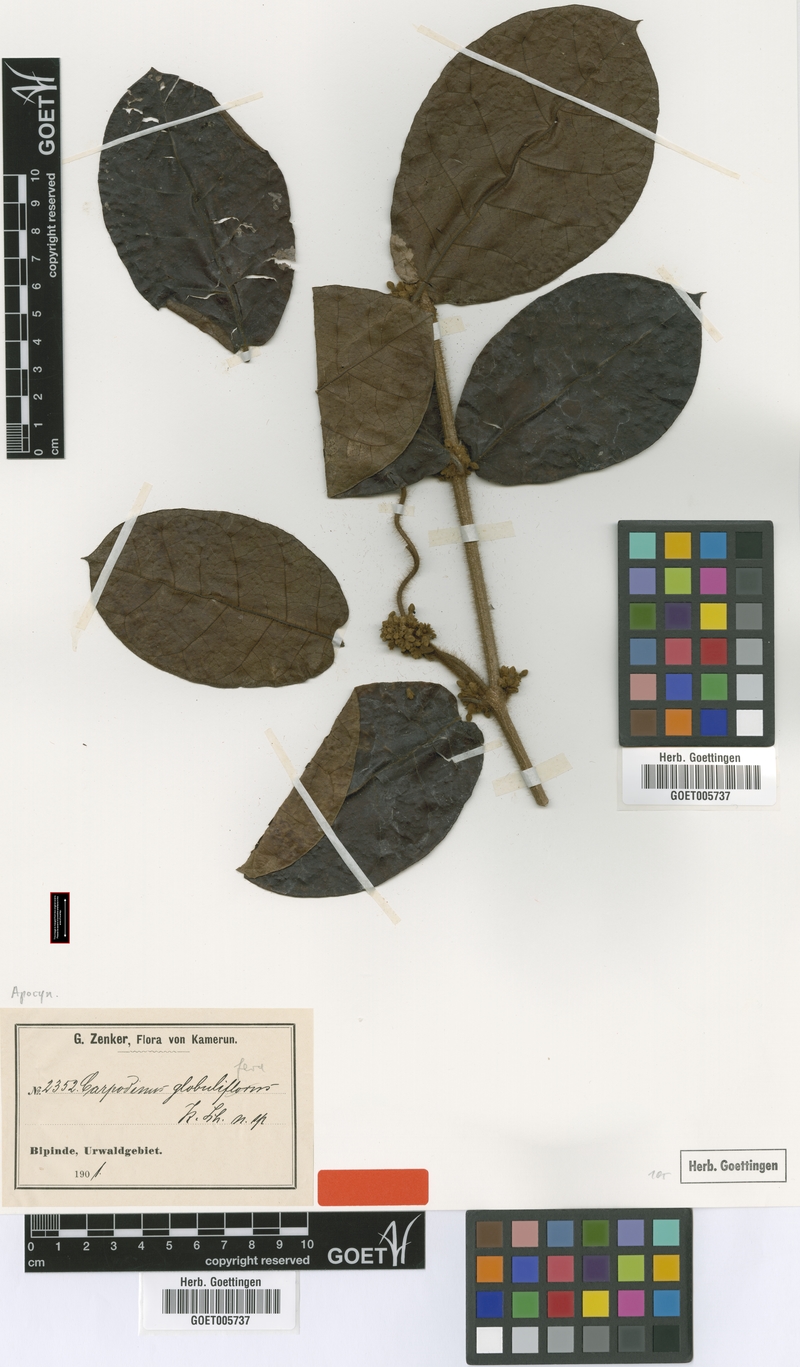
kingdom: Plantae
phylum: Tracheophyta
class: Magnoliopsida
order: Gentianales
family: Apocynaceae
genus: Landolphia
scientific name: Landolphia jumellei
